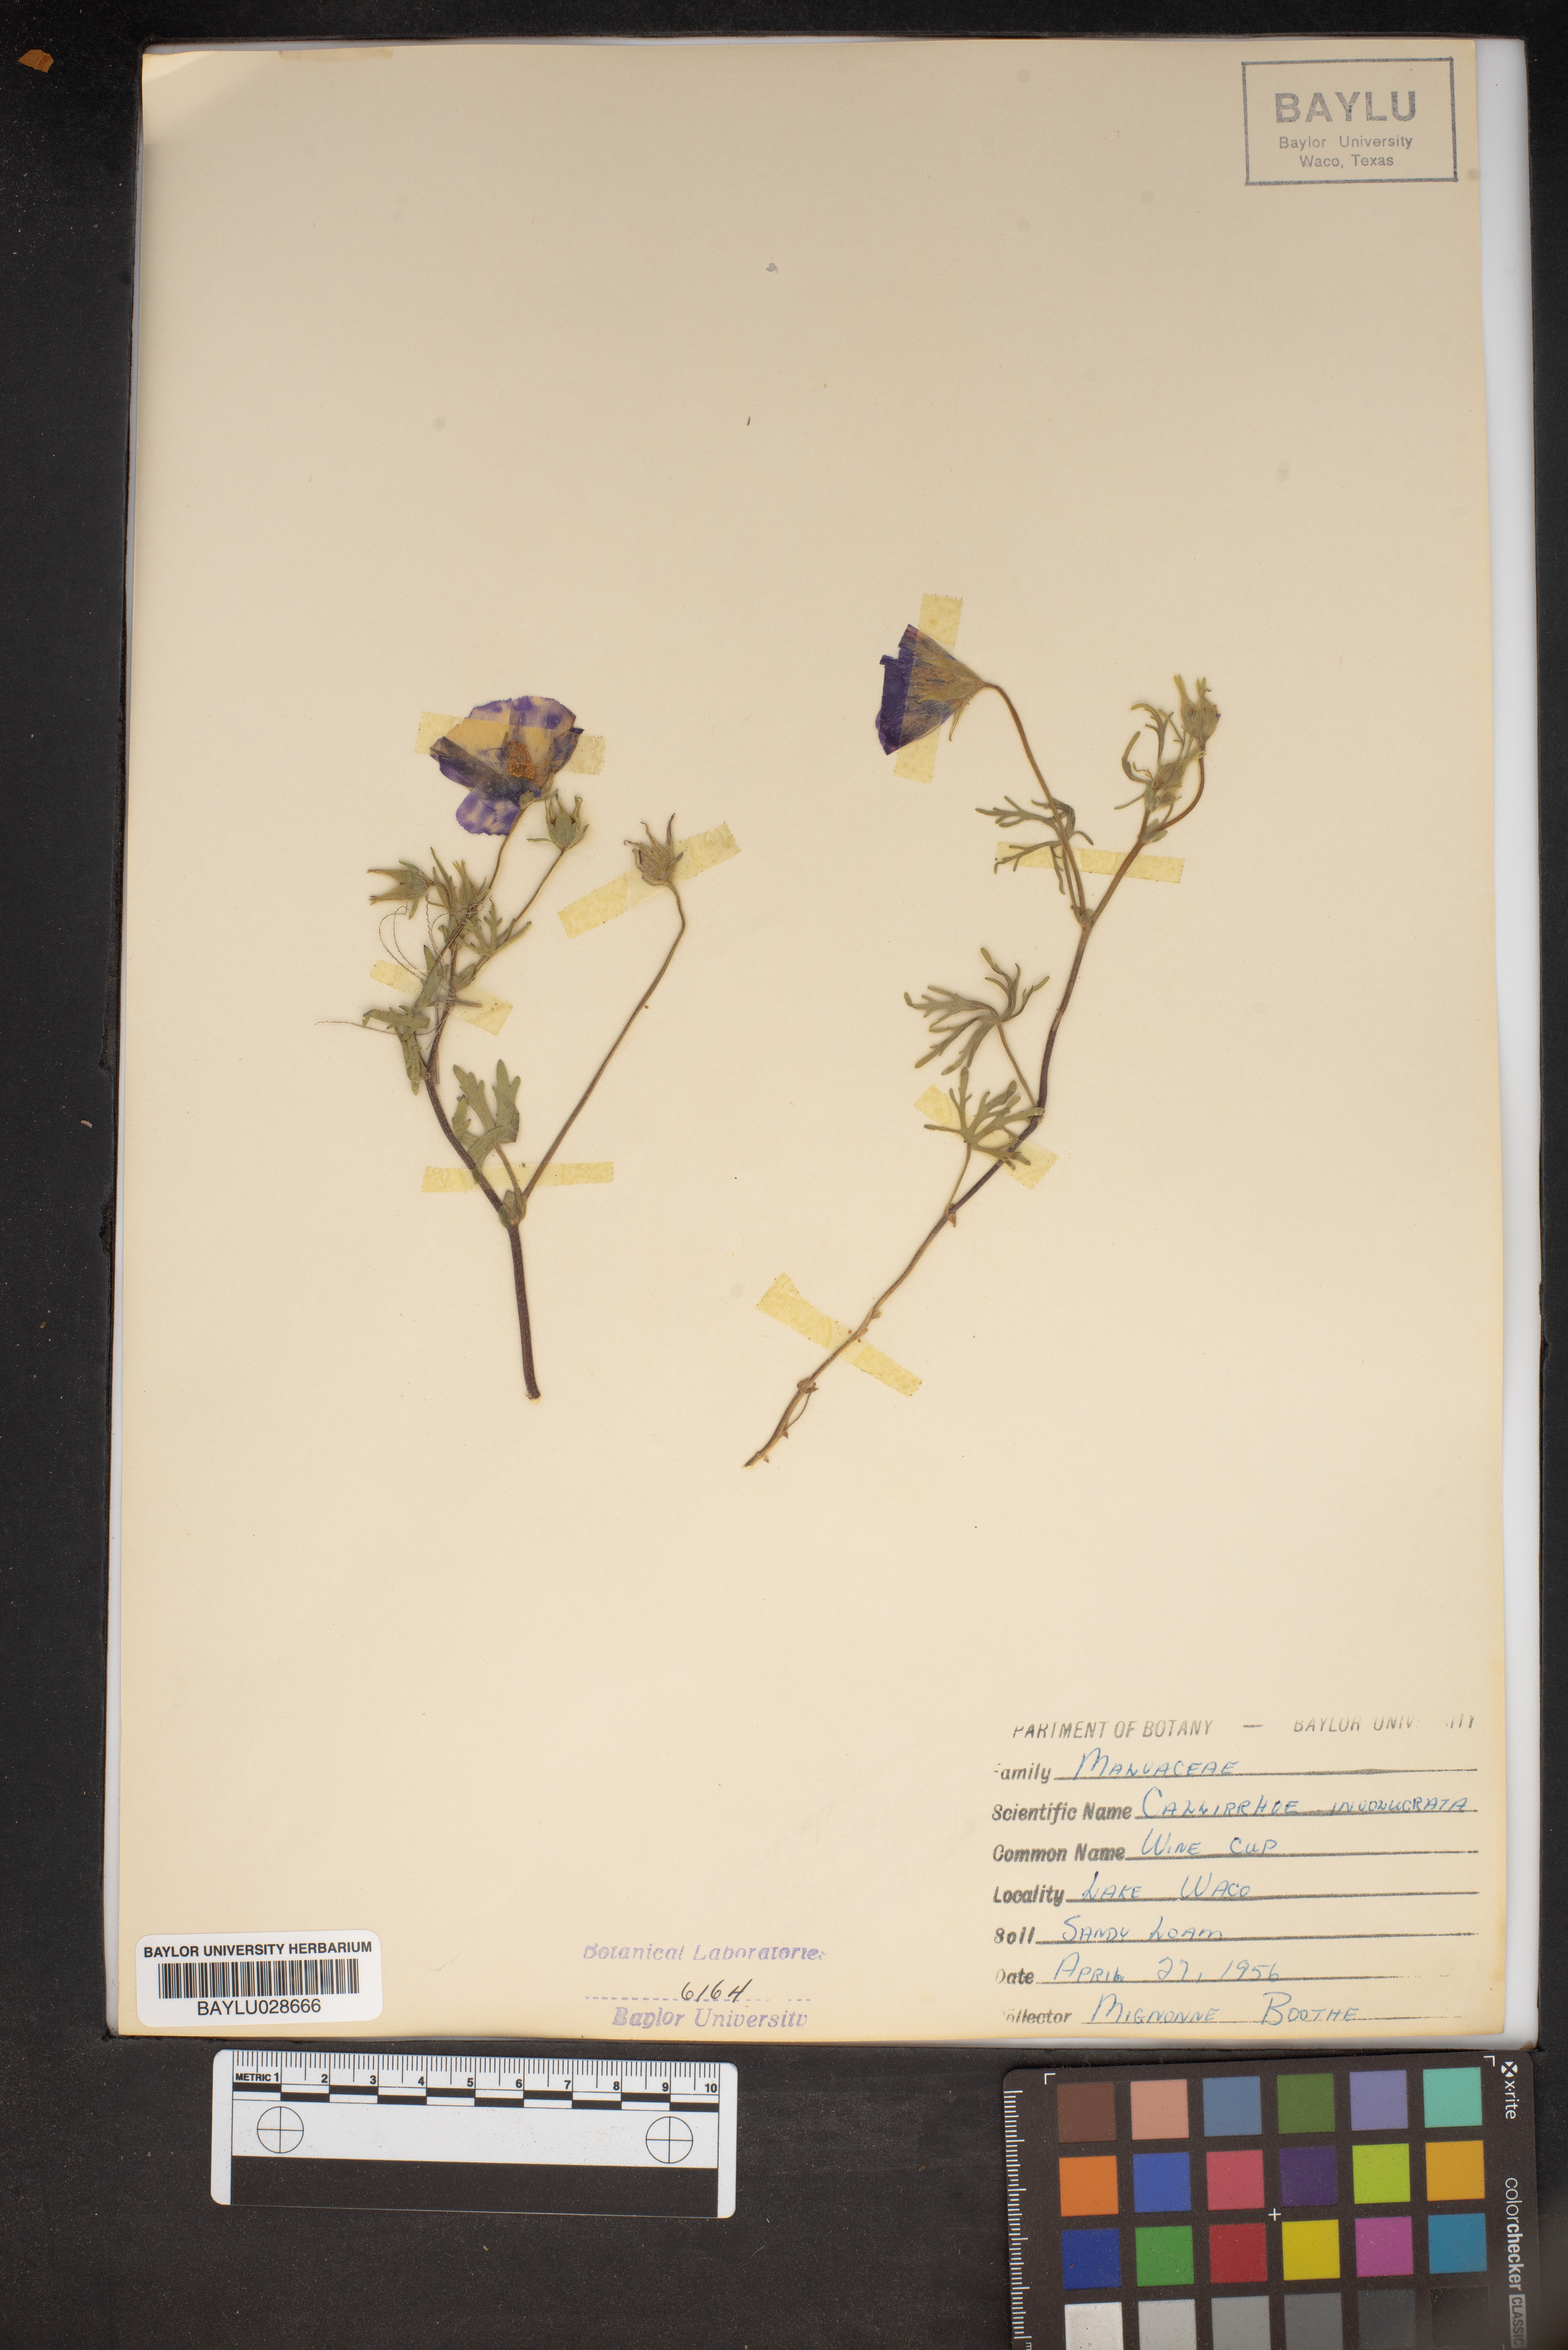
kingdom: Plantae
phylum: Tracheophyta
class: Magnoliopsida
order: Malvales
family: Malvaceae
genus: Callirhoe
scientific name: Callirhoe involucrata
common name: Purple poppy-mallow
